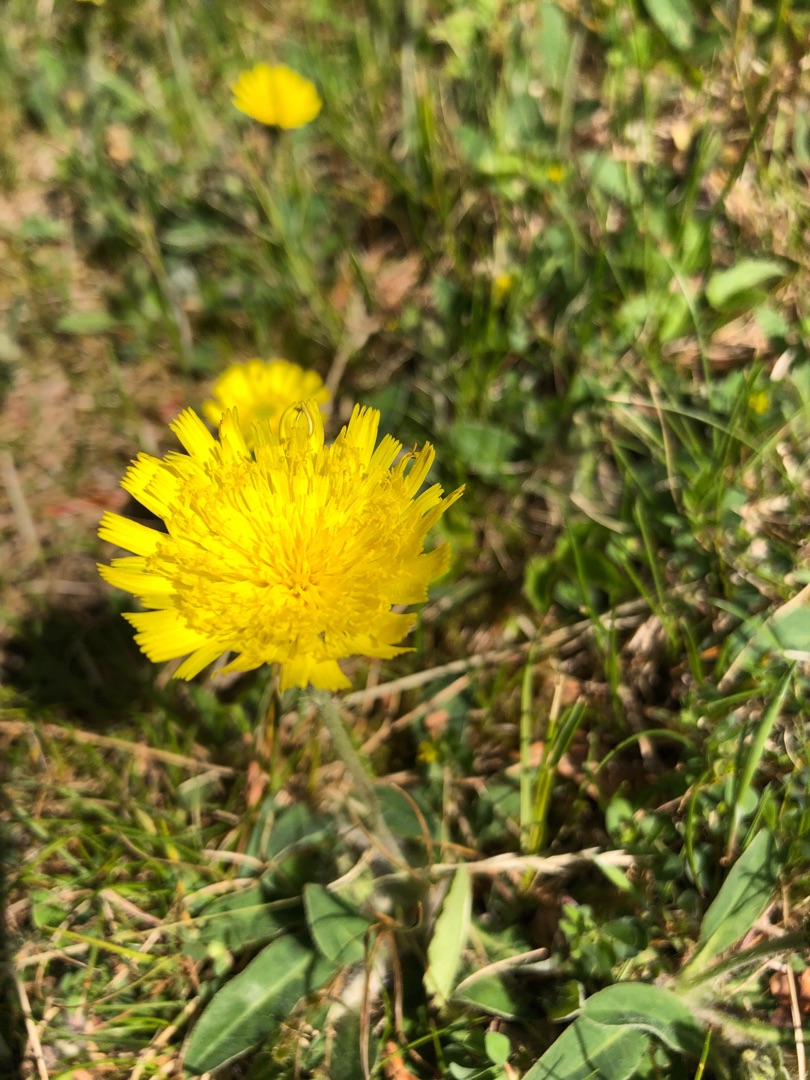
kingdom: Plantae
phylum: Tracheophyta
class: Magnoliopsida
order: Asterales
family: Asteraceae
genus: Pilosella
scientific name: Pilosella officinarum
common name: Håret høgeurt
